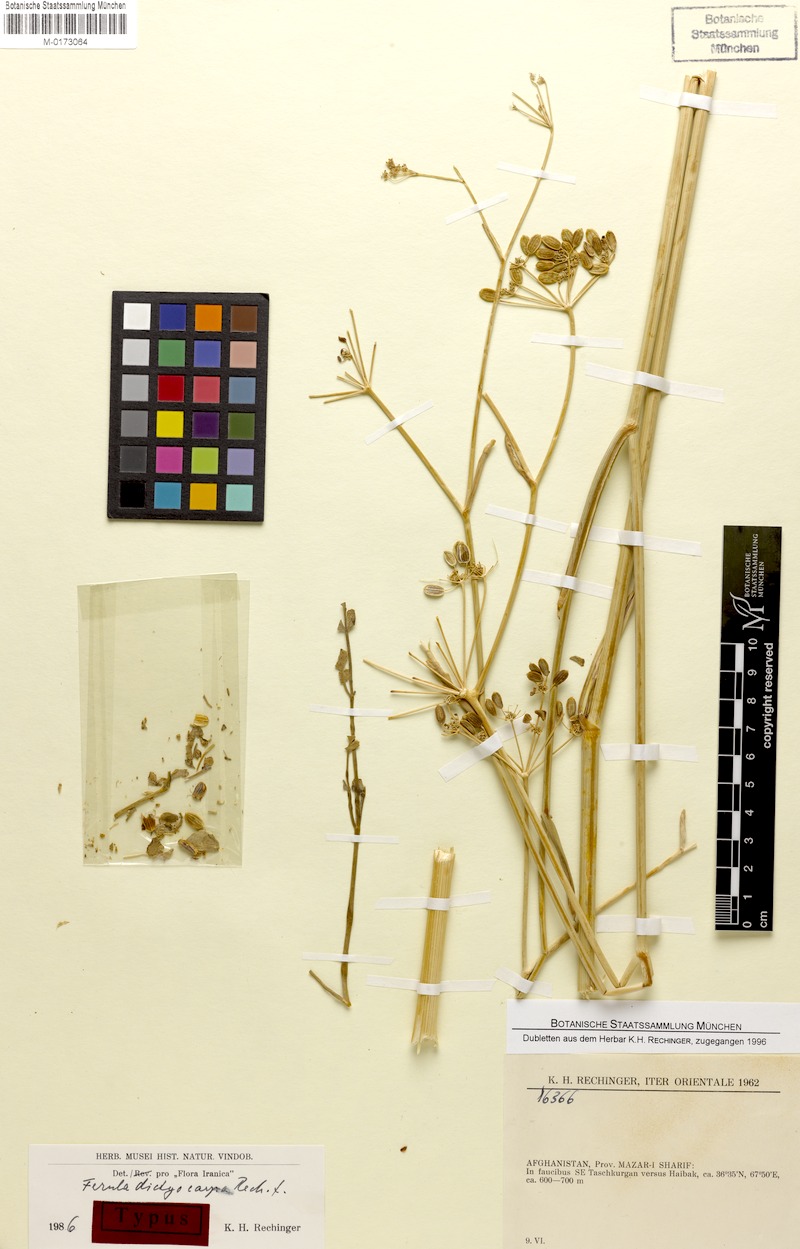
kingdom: Plantae
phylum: Tracheophyta
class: Magnoliopsida
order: Apiales
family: Apiaceae
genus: Ferula
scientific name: Ferula dictyocarpa
